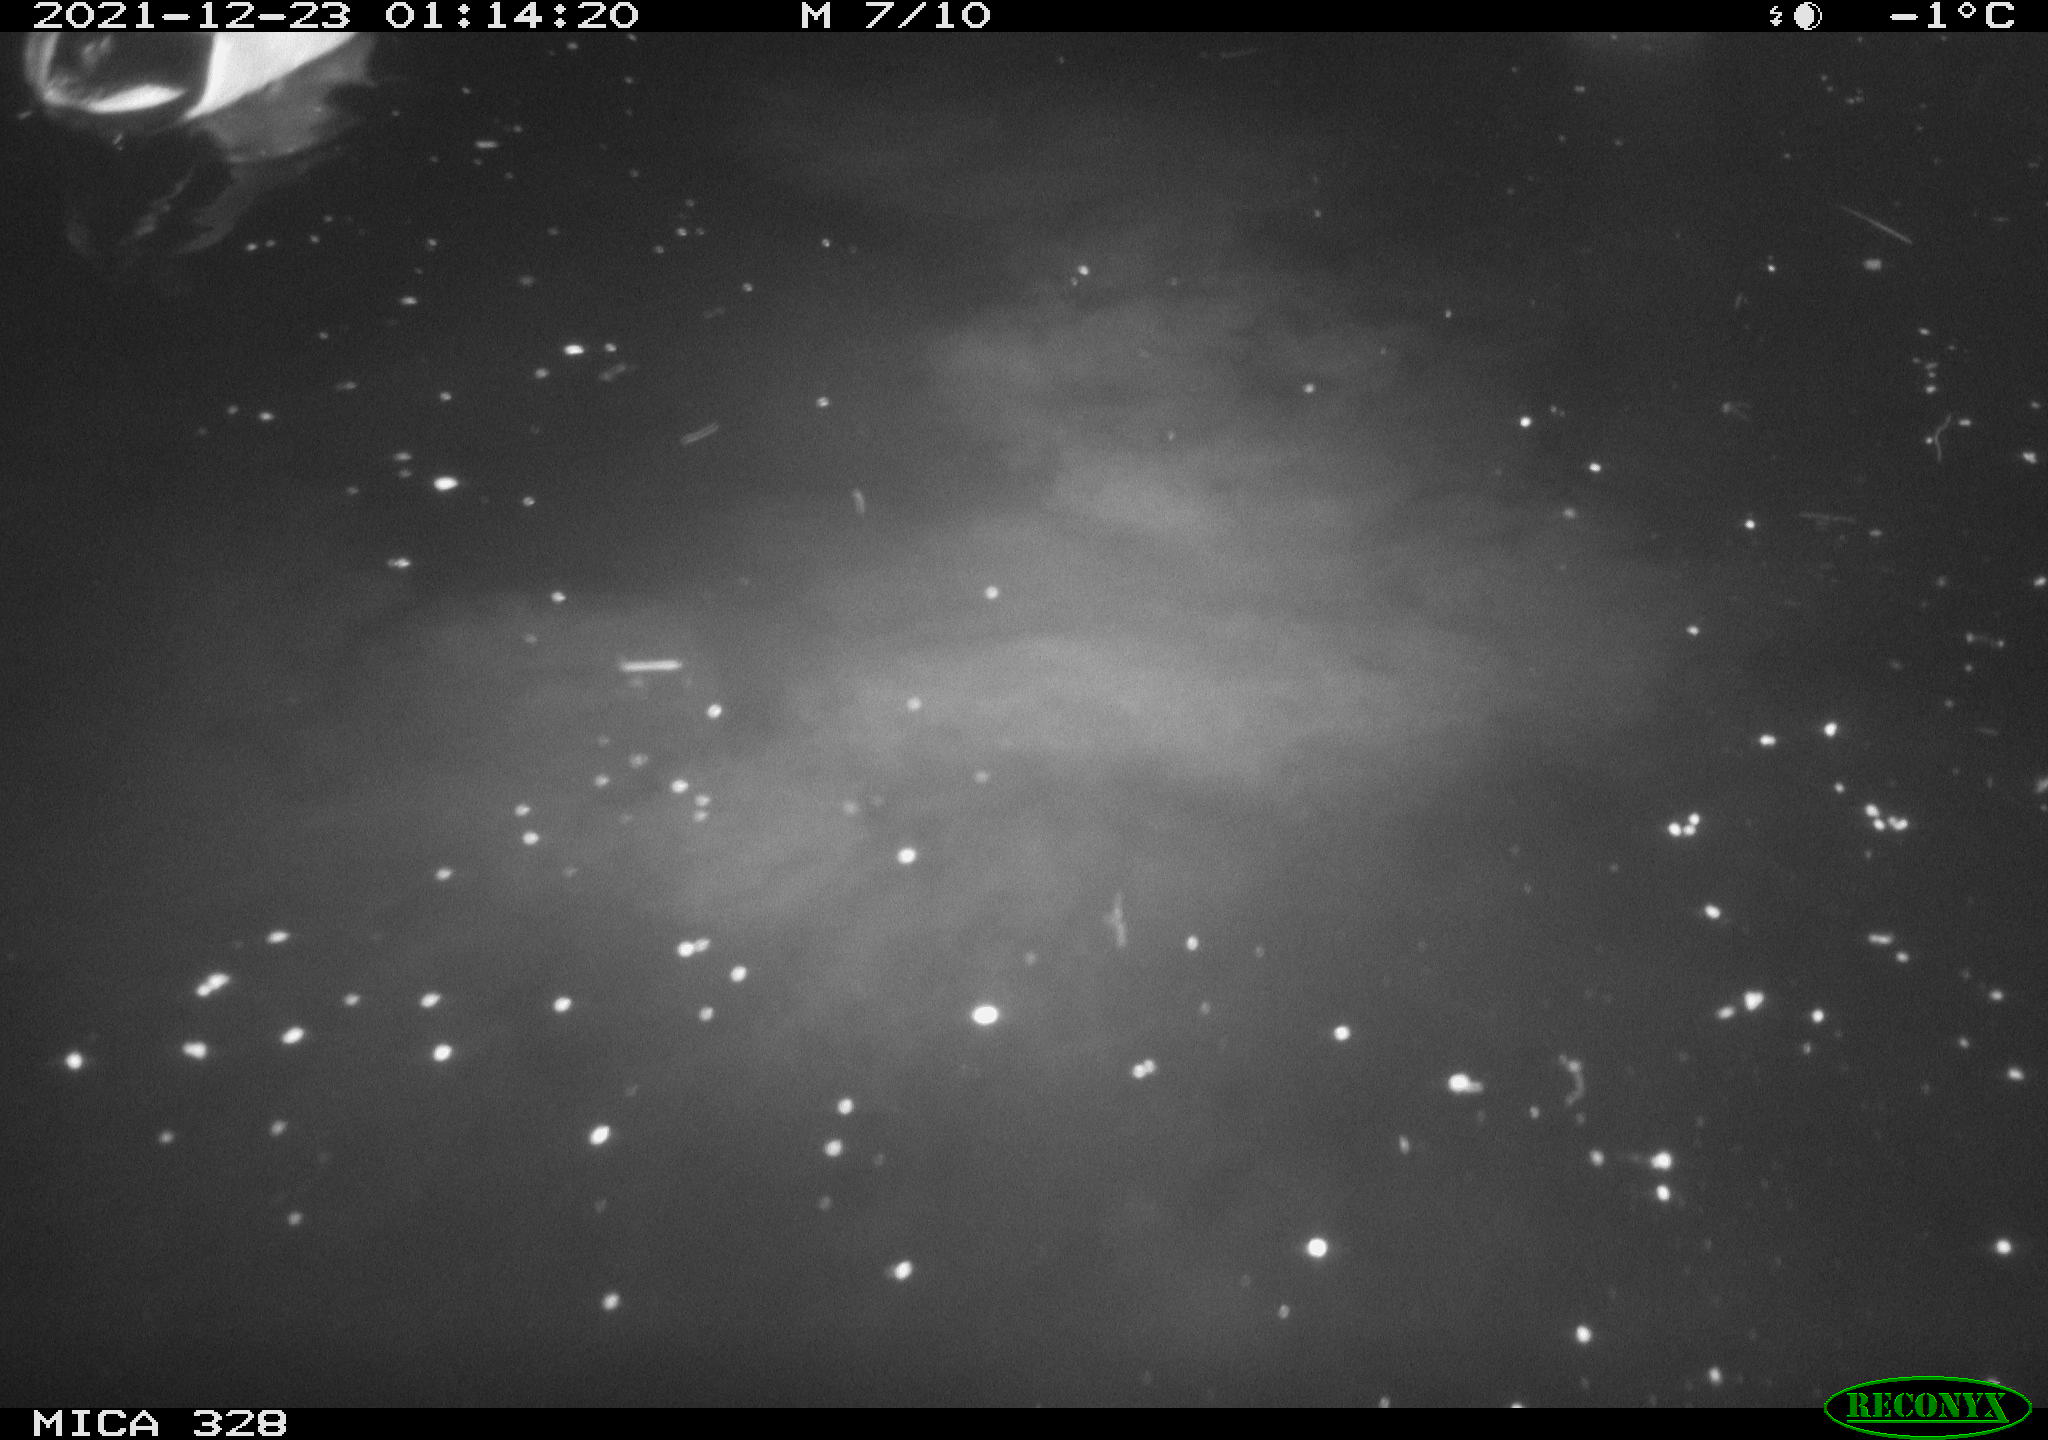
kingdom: Animalia
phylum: Chordata
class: Aves
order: Anseriformes
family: Anatidae
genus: Anas
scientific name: Anas platyrhynchos
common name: Mallard
